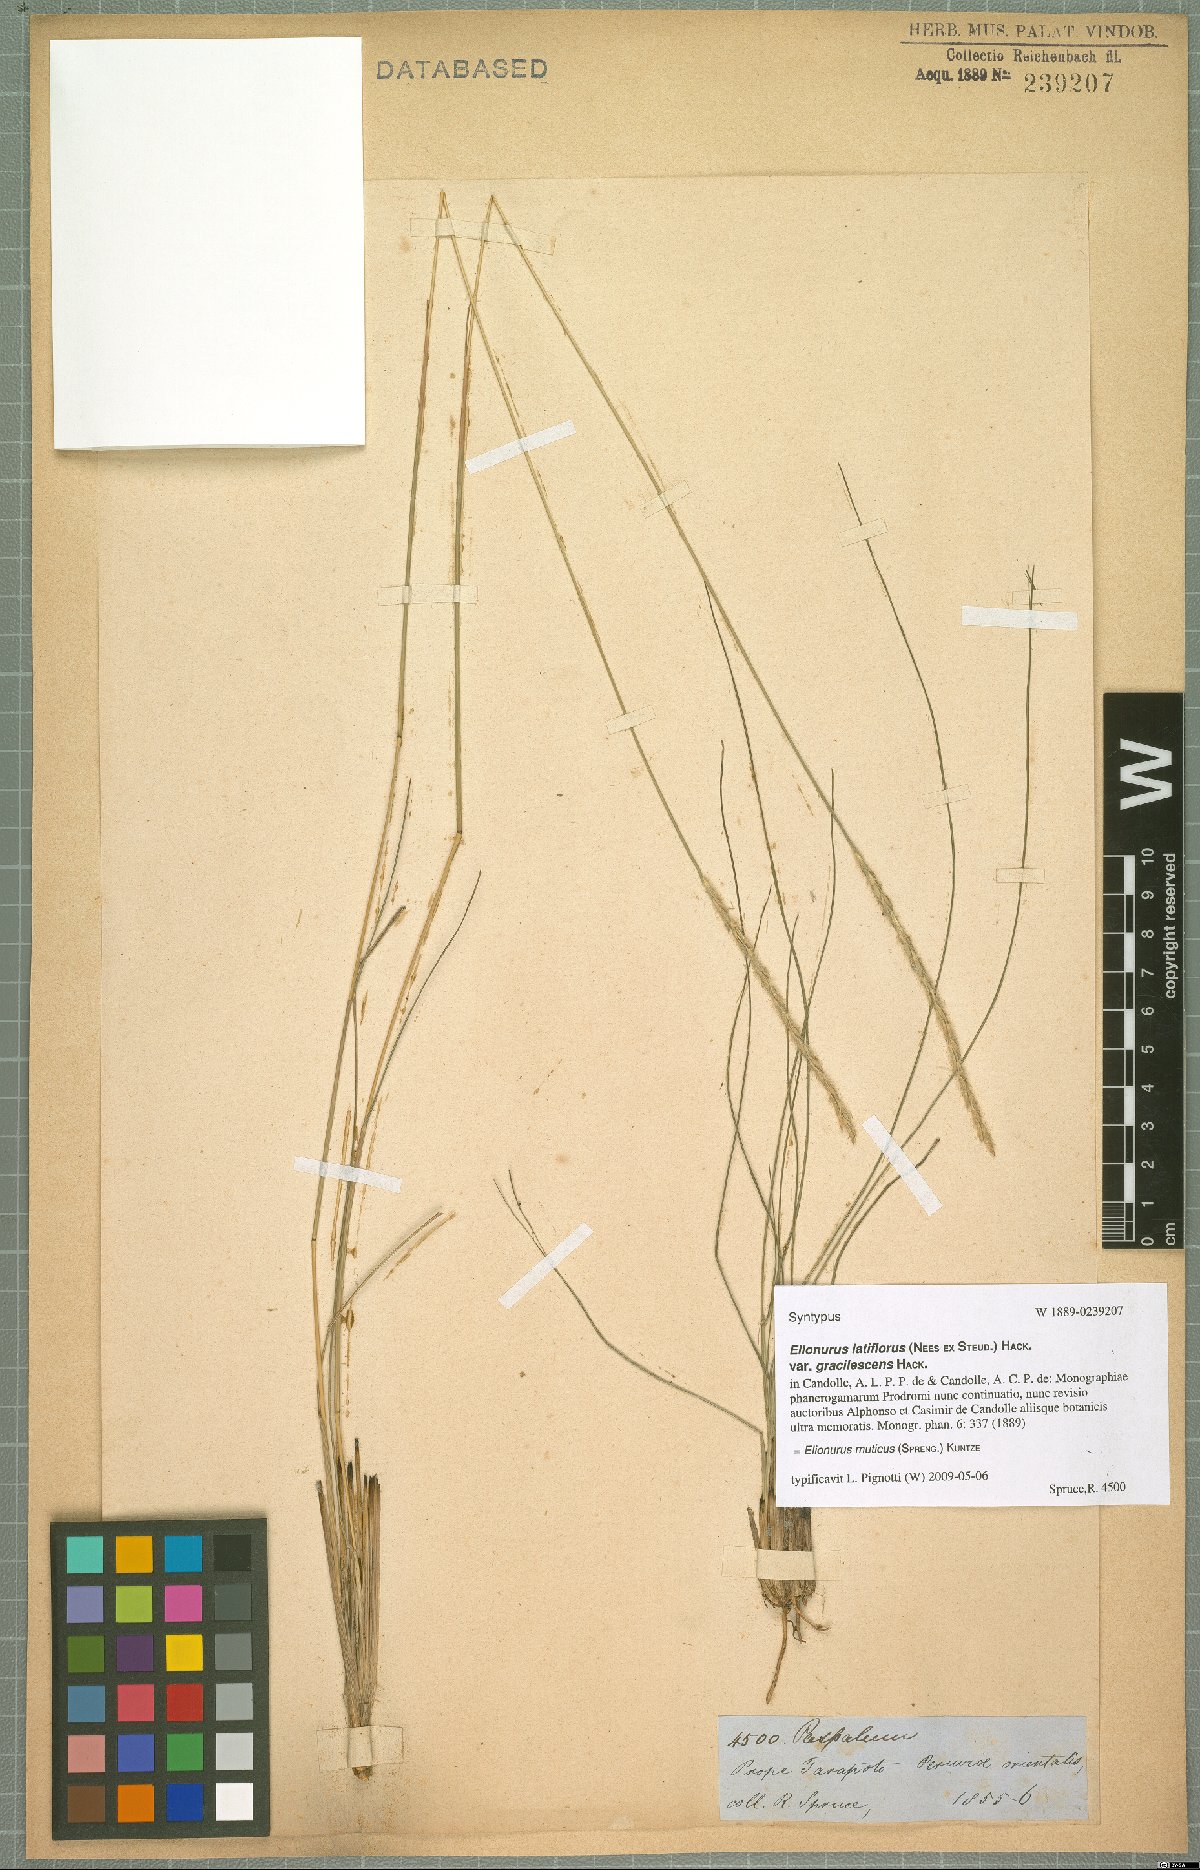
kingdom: Plantae
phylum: Tracheophyta
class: Liliopsida
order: Poales
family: Poaceae
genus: Elionurus
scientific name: Elionurus muticus
